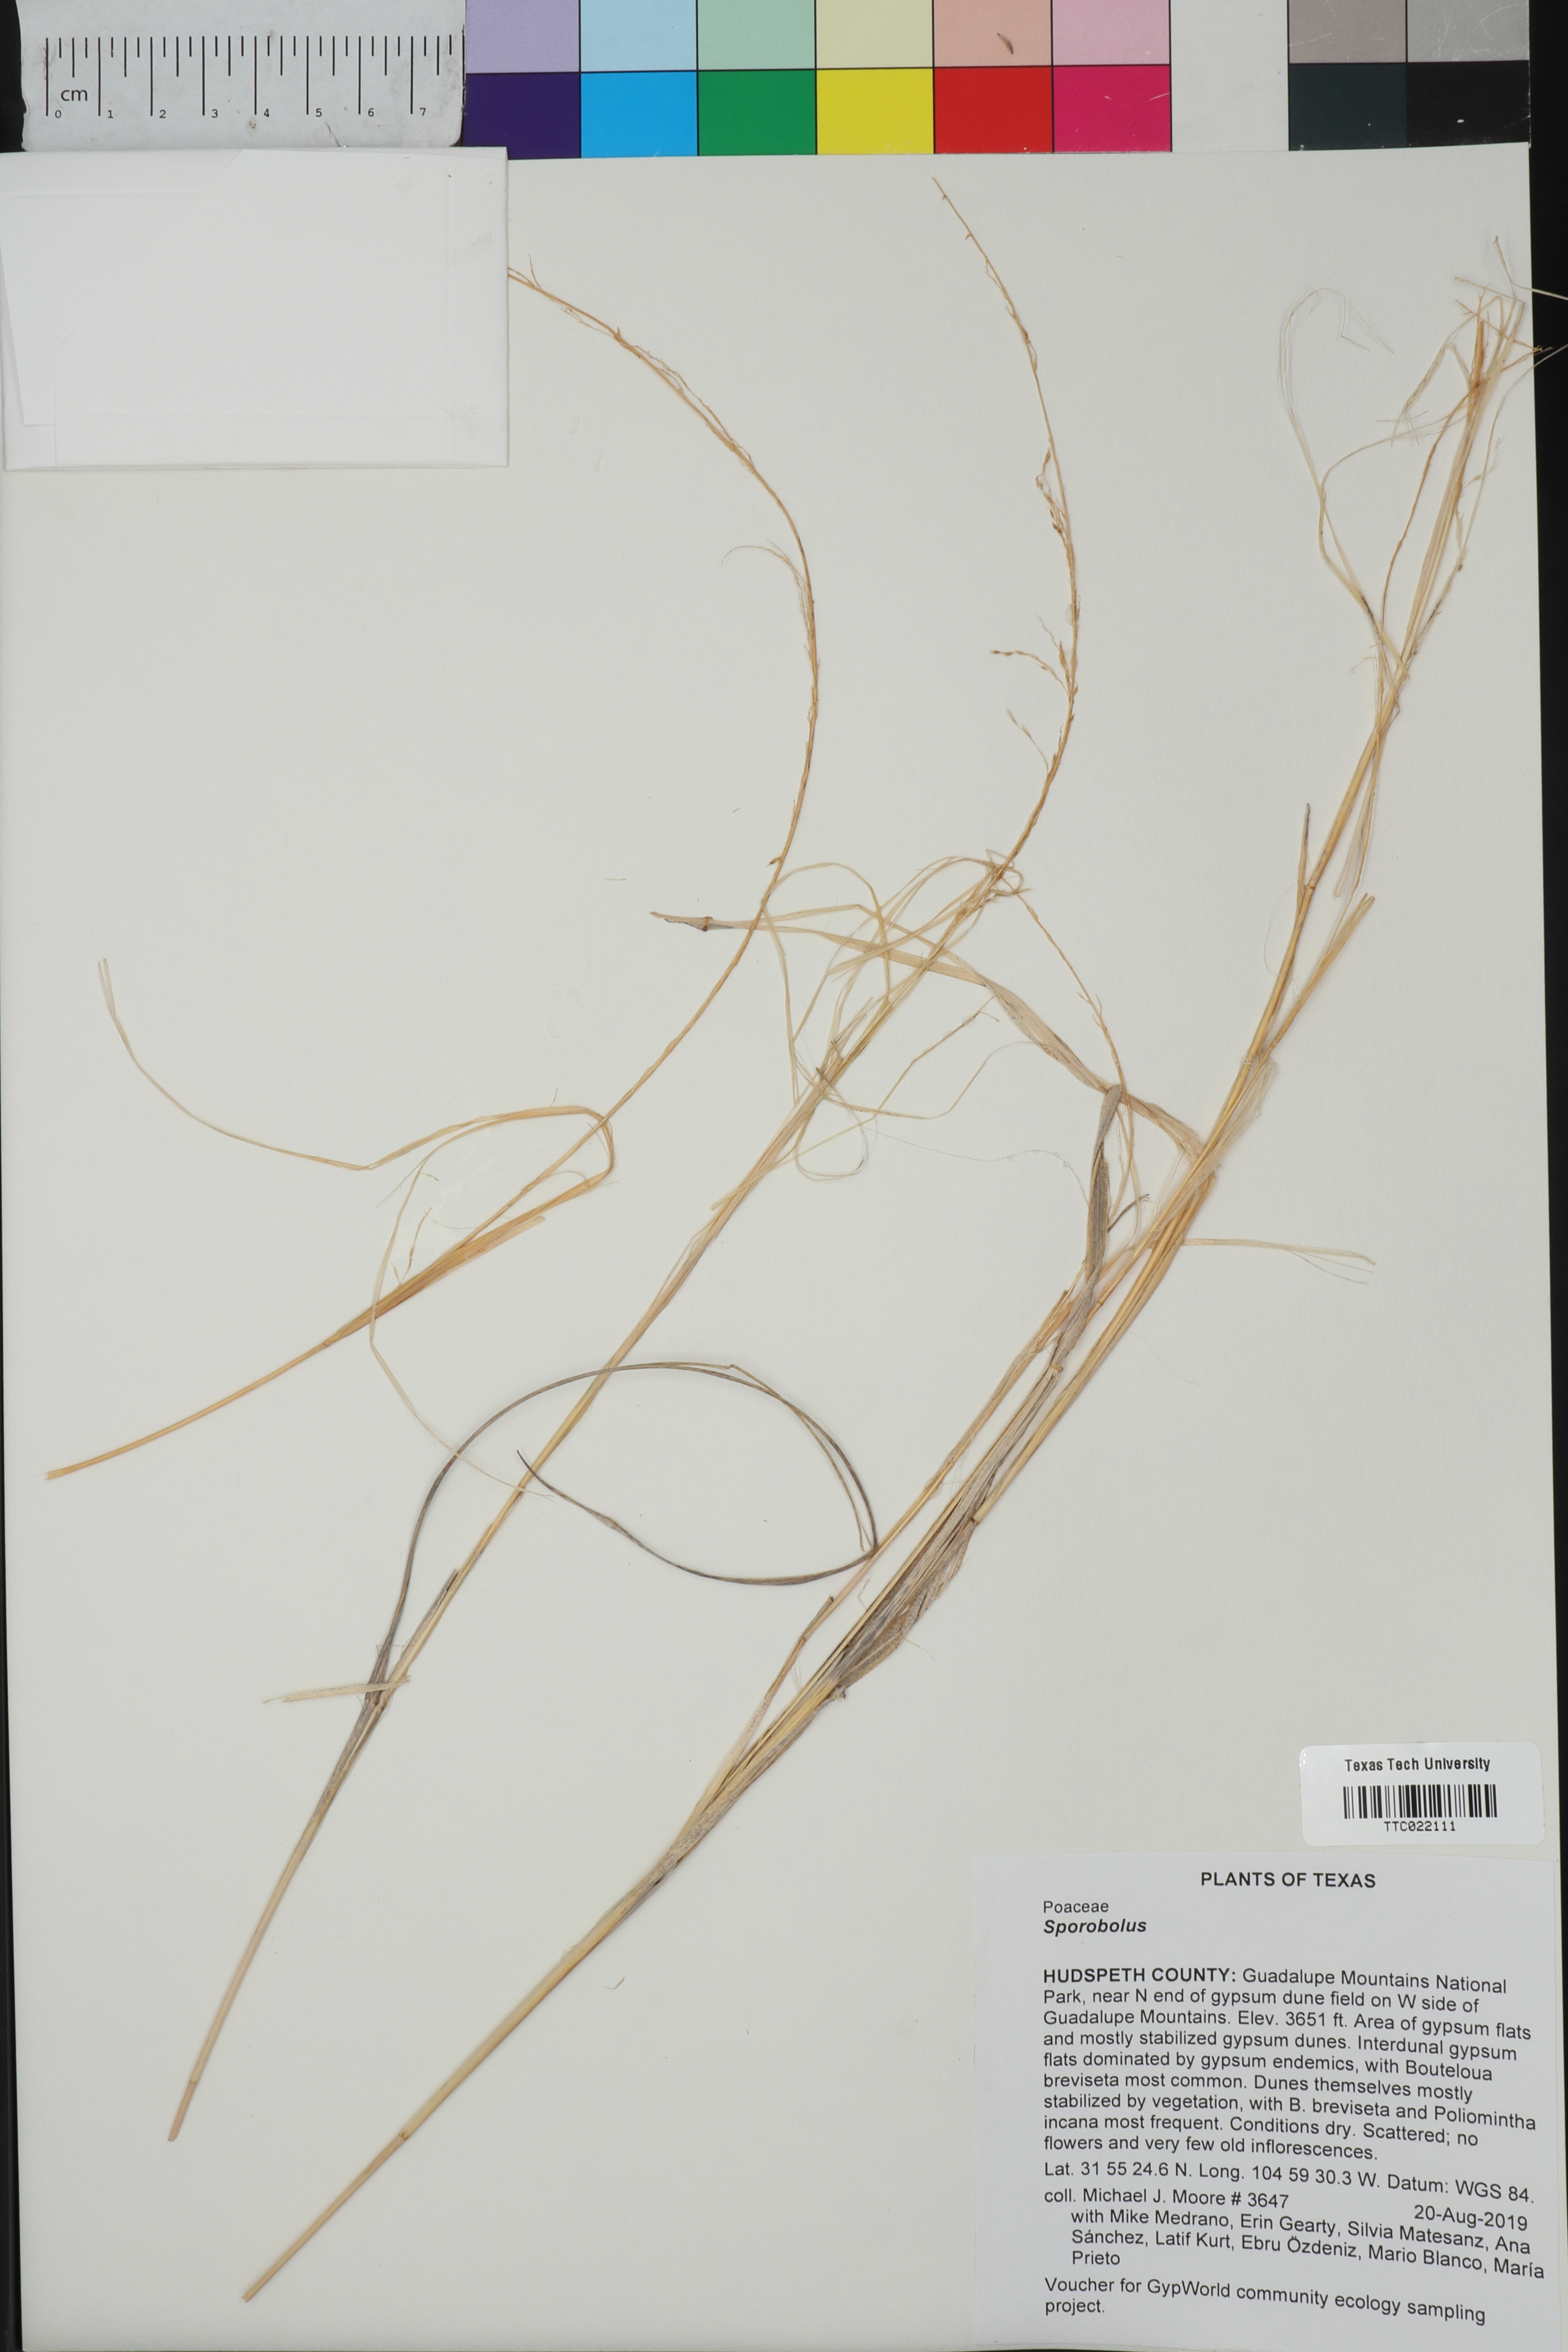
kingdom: Plantae
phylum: Tracheophyta
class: Liliopsida
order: Poales
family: Poaceae
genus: Sporobolus
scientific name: Sporobolus
